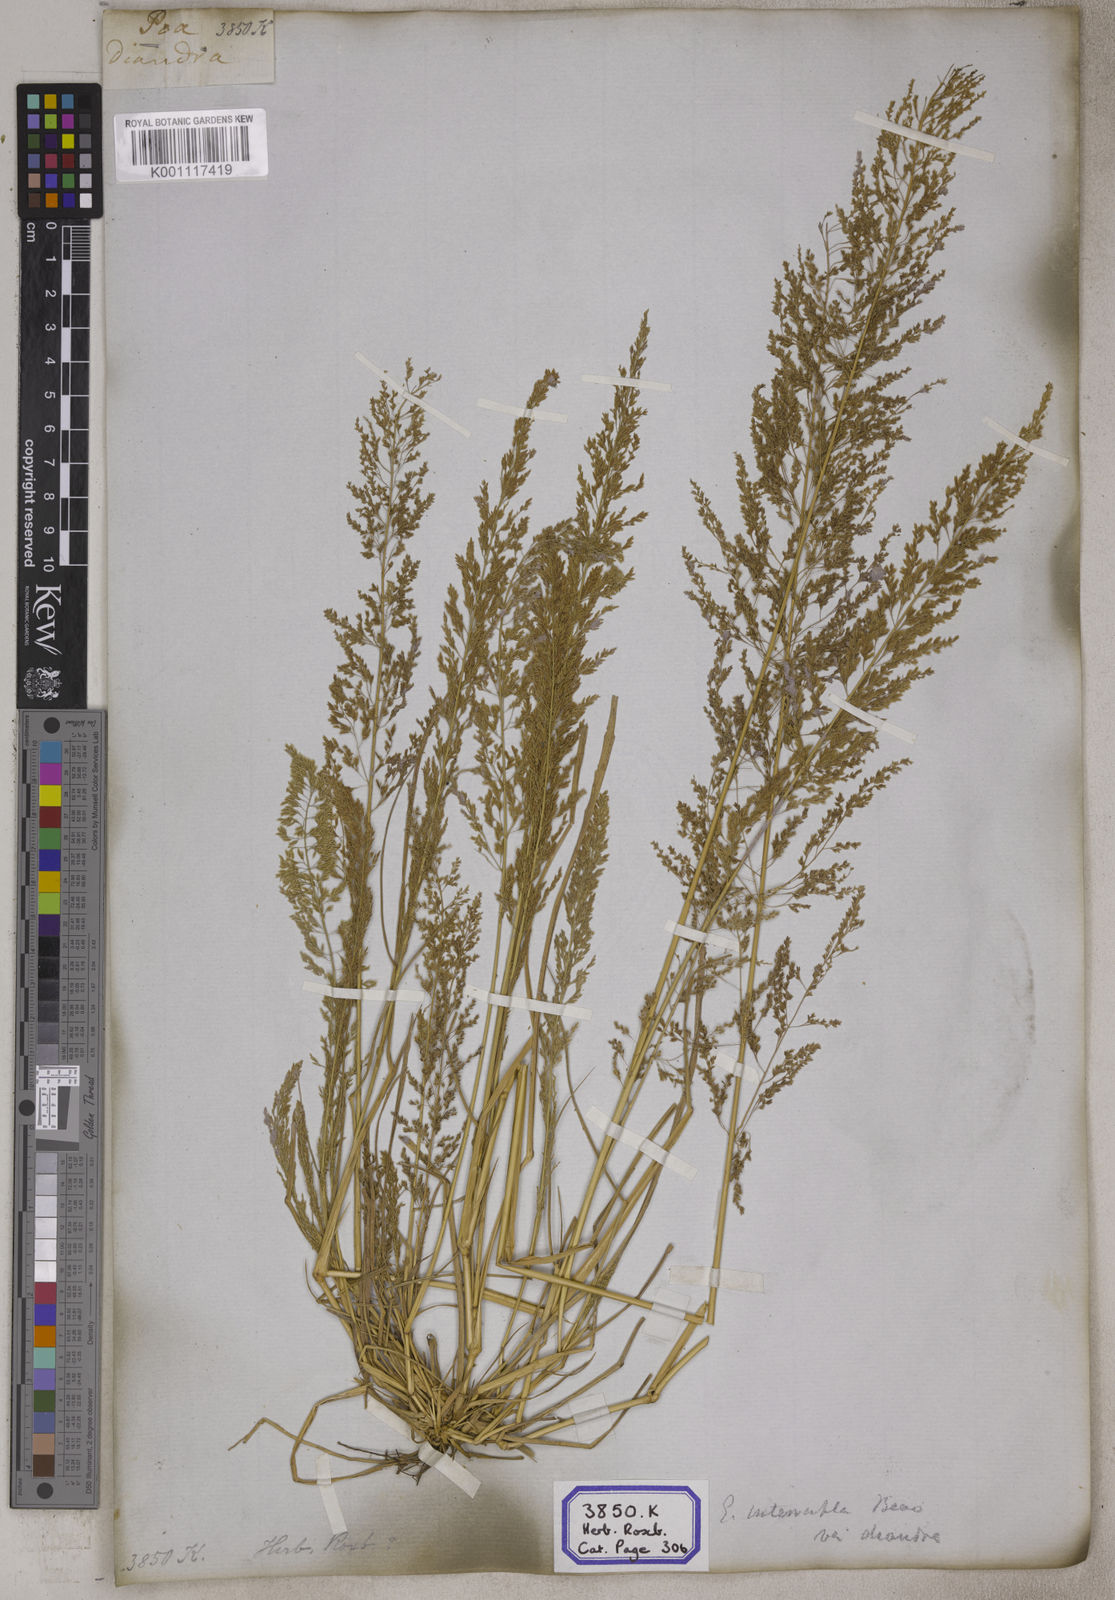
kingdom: Plantae
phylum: Tracheophyta
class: Liliopsida
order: Poales
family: Poaceae
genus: Eragrostis
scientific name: Eragrostis
